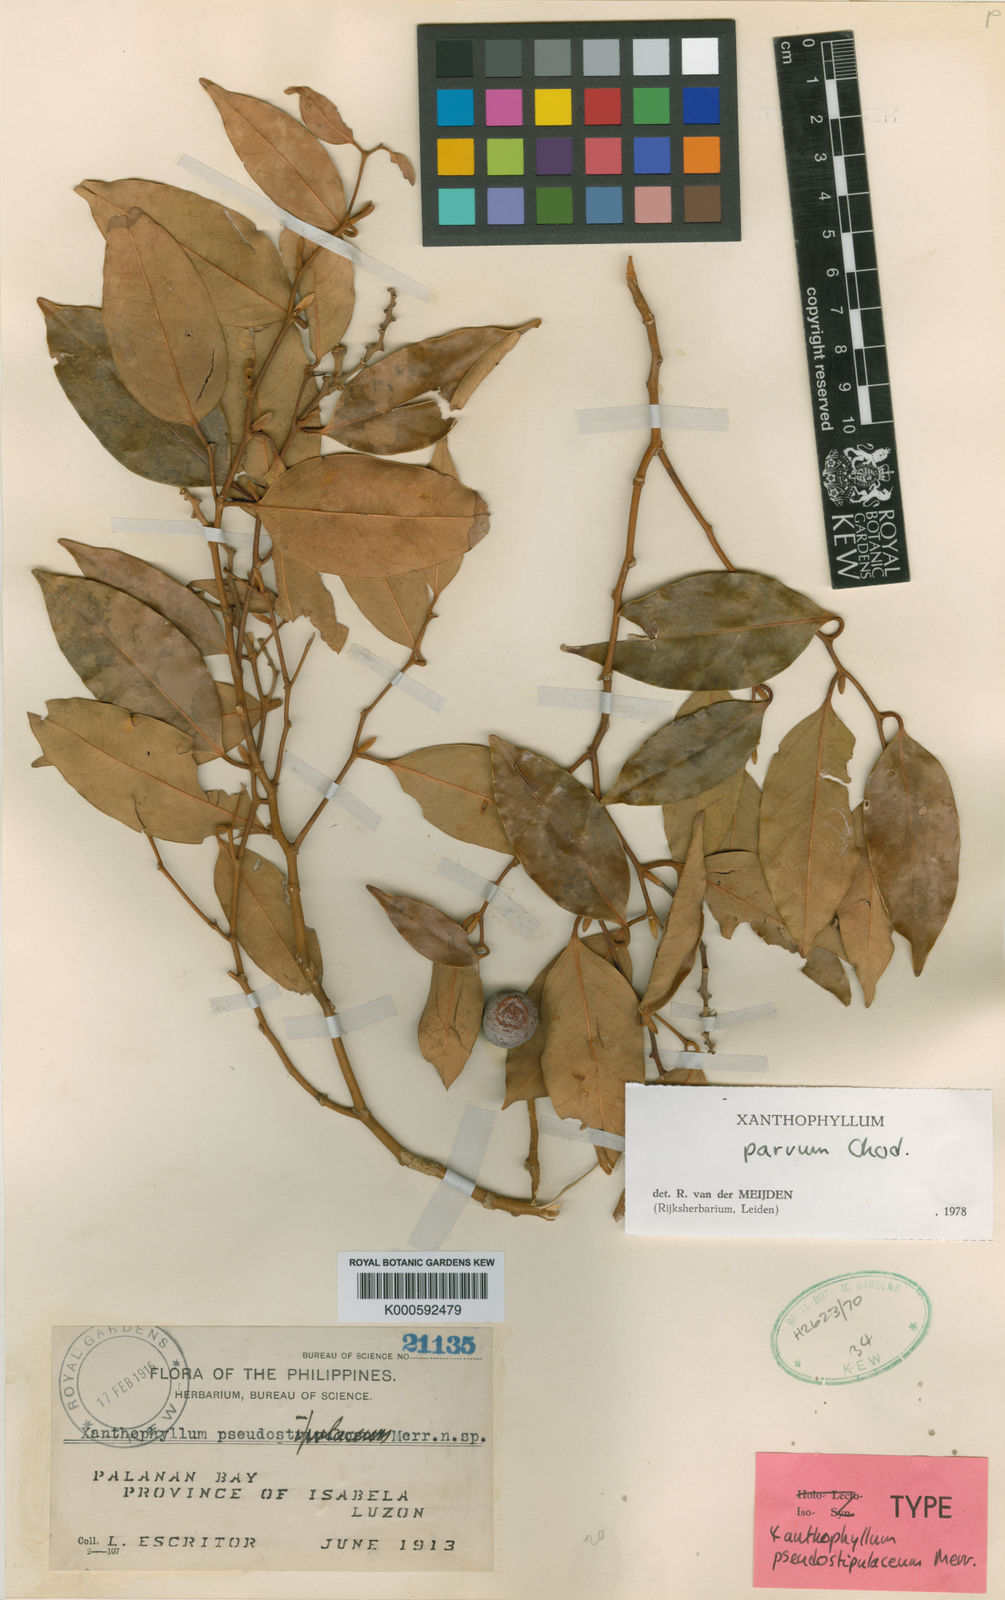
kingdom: Plantae
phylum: Tracheophyta
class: Magnoliopsida
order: Fabales
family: Polygalaceae
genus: Xanthophyllum
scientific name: Xanthophyllum
